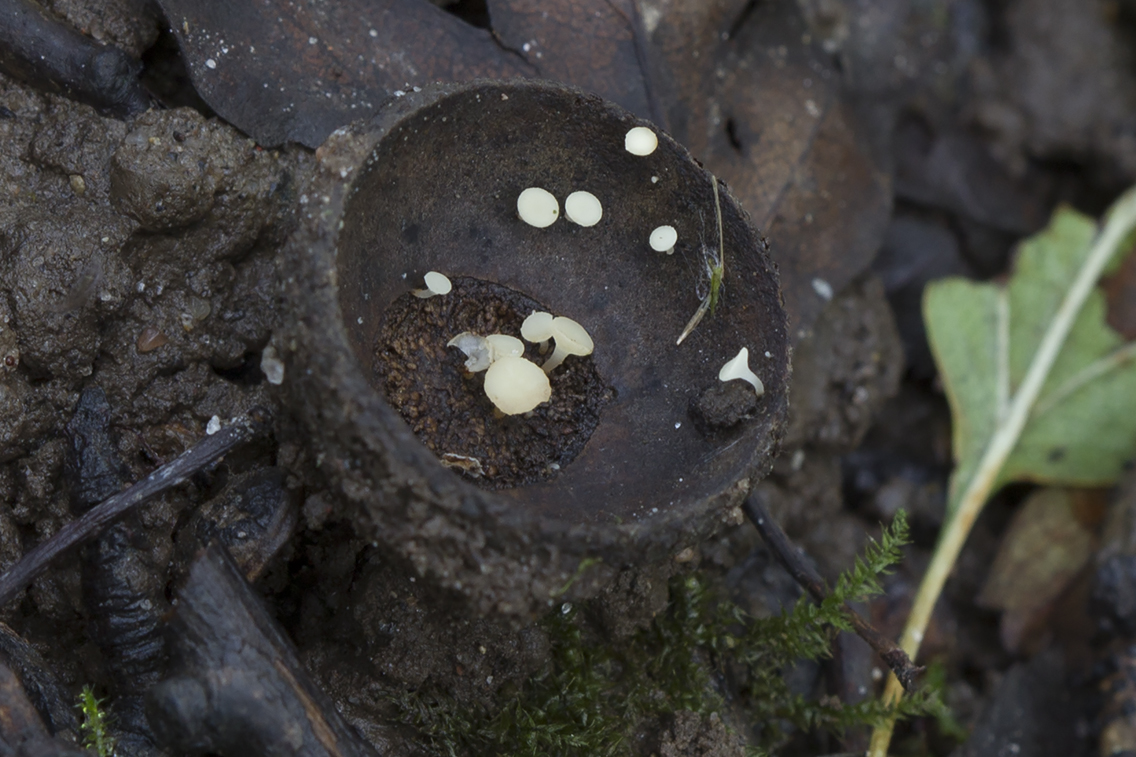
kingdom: Fungi
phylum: Ascomycota
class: Leotiomycetes
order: Helotiales
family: Helotiaceae
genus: Hymenoscyphus
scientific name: Hymenoscyphus fructigenus
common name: frugt-stilkskive
